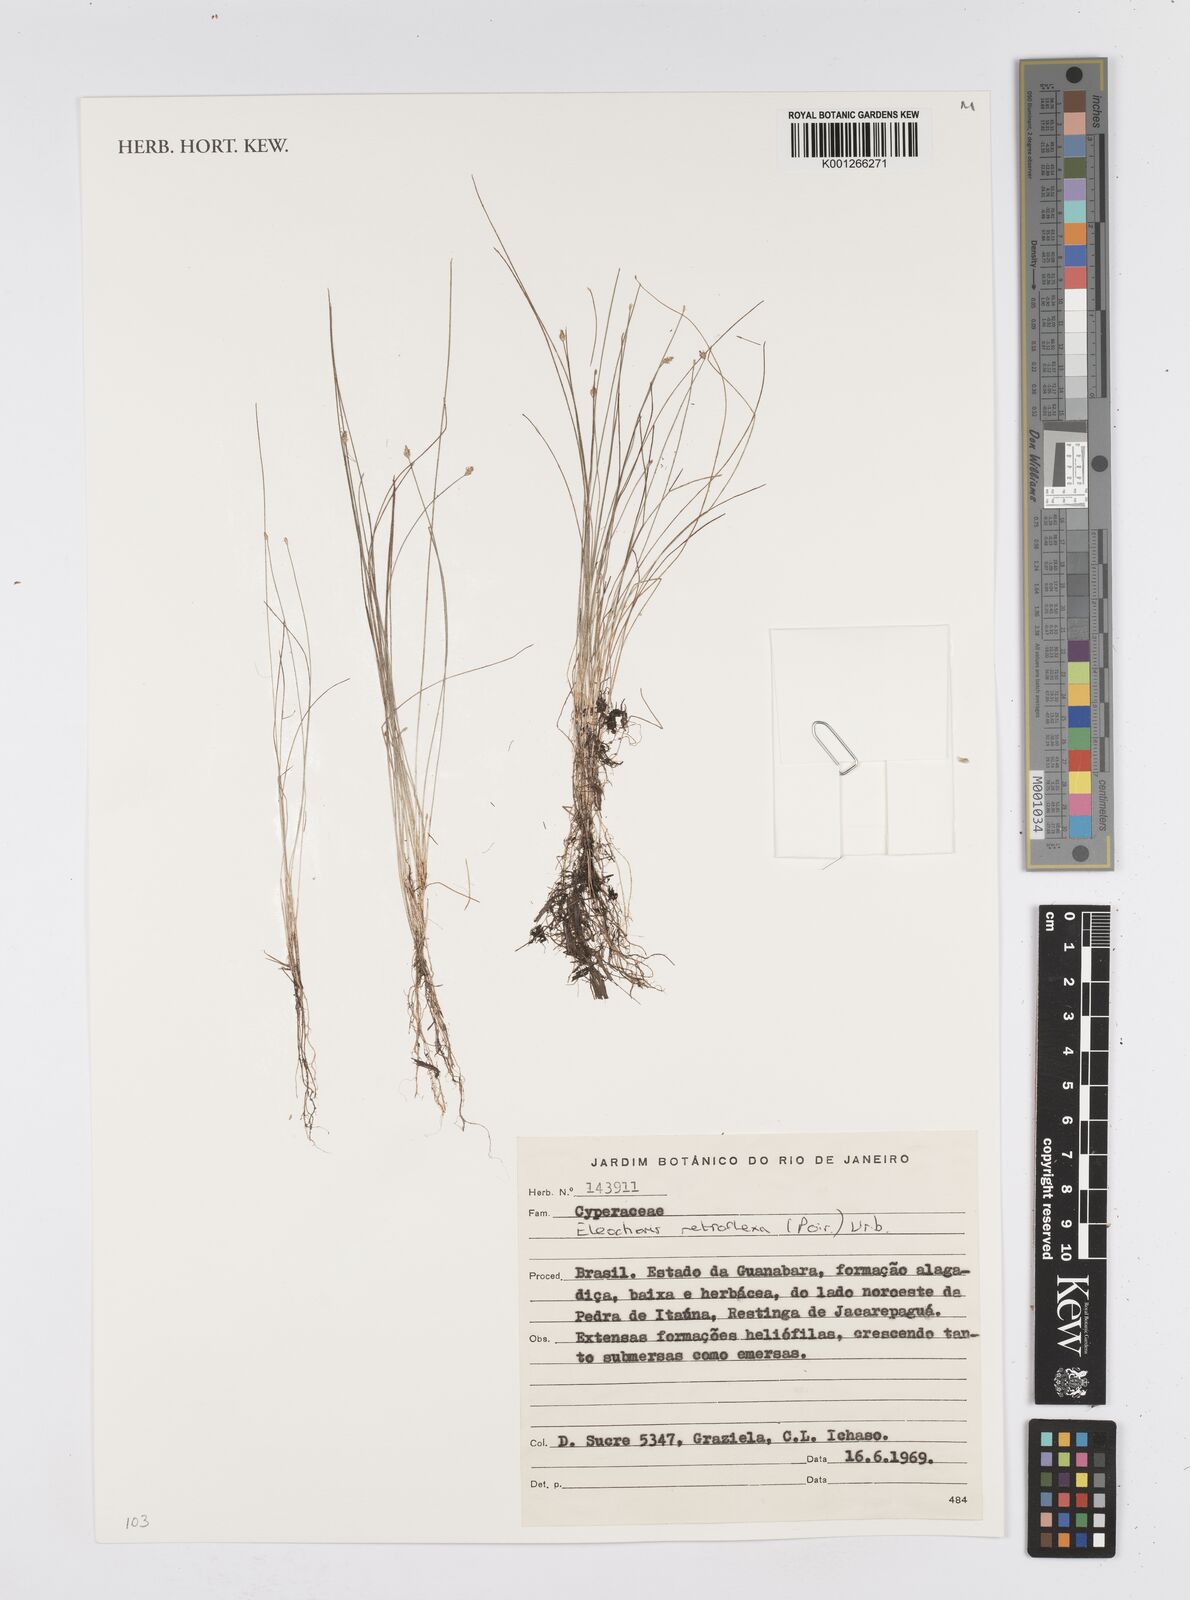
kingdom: Plantae
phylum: Tracheophyta
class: Liliopsida
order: Poales
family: Cyperaceae
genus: Eleocharis
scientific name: Eleocharis retroflexa
